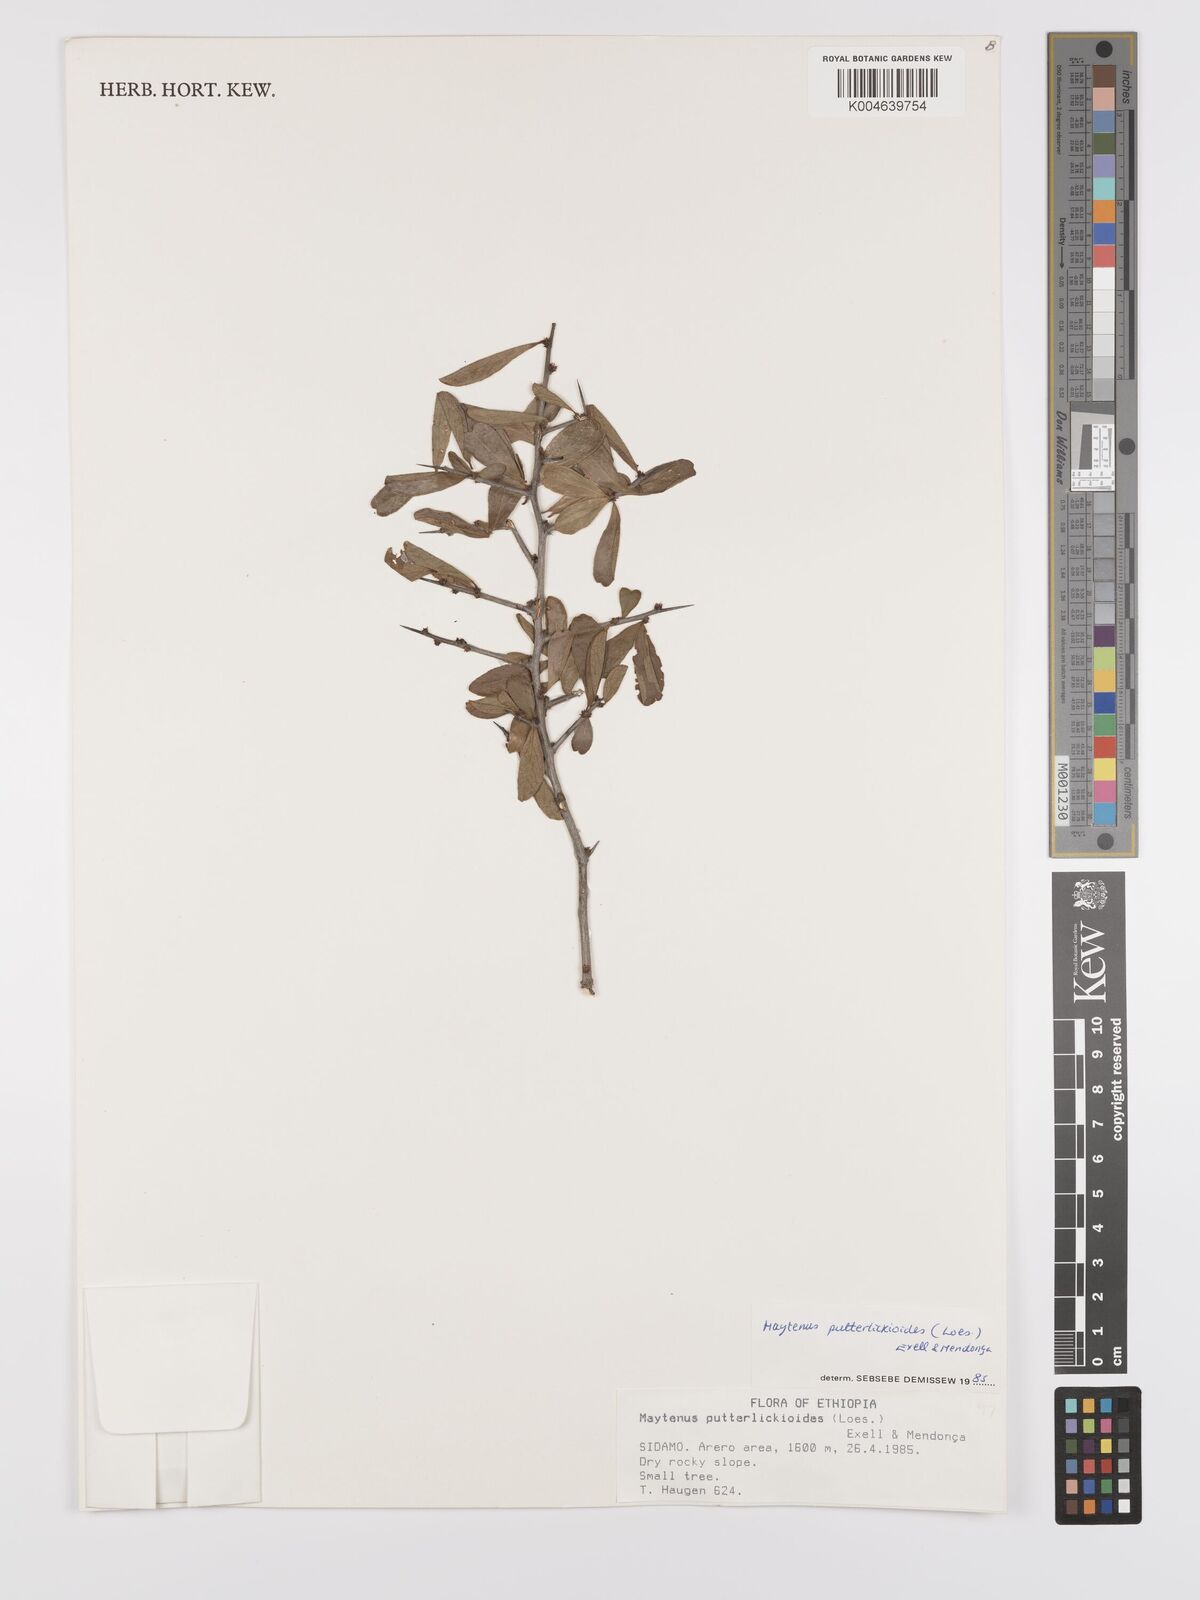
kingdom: Plantae
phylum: Tracheophyta
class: Magnoliopsida
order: Celastrales
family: Celastraceae
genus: Gymnosporia
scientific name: Gymnosporia putterlickioides
